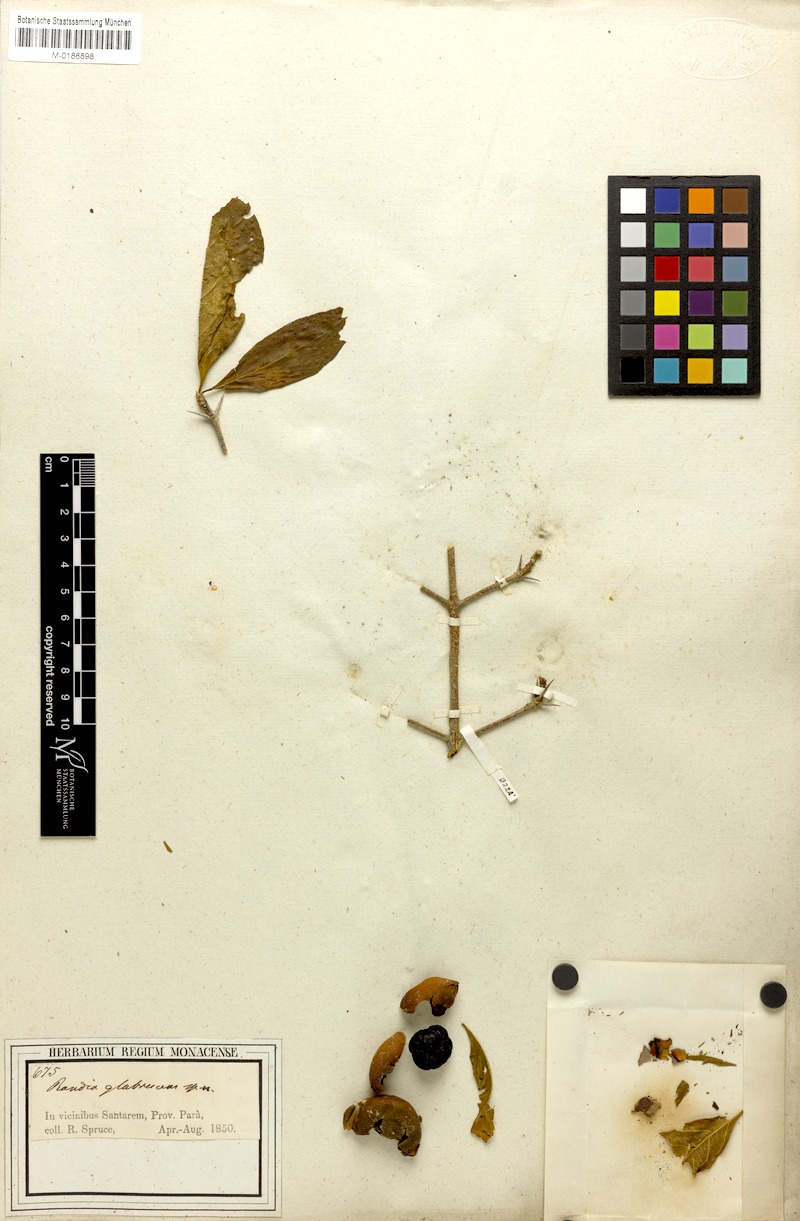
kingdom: Plantae
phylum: Tracheophyta
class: Magnoliopsida
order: Gentianales
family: Rubiaceae
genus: Randia
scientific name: Randia armata
